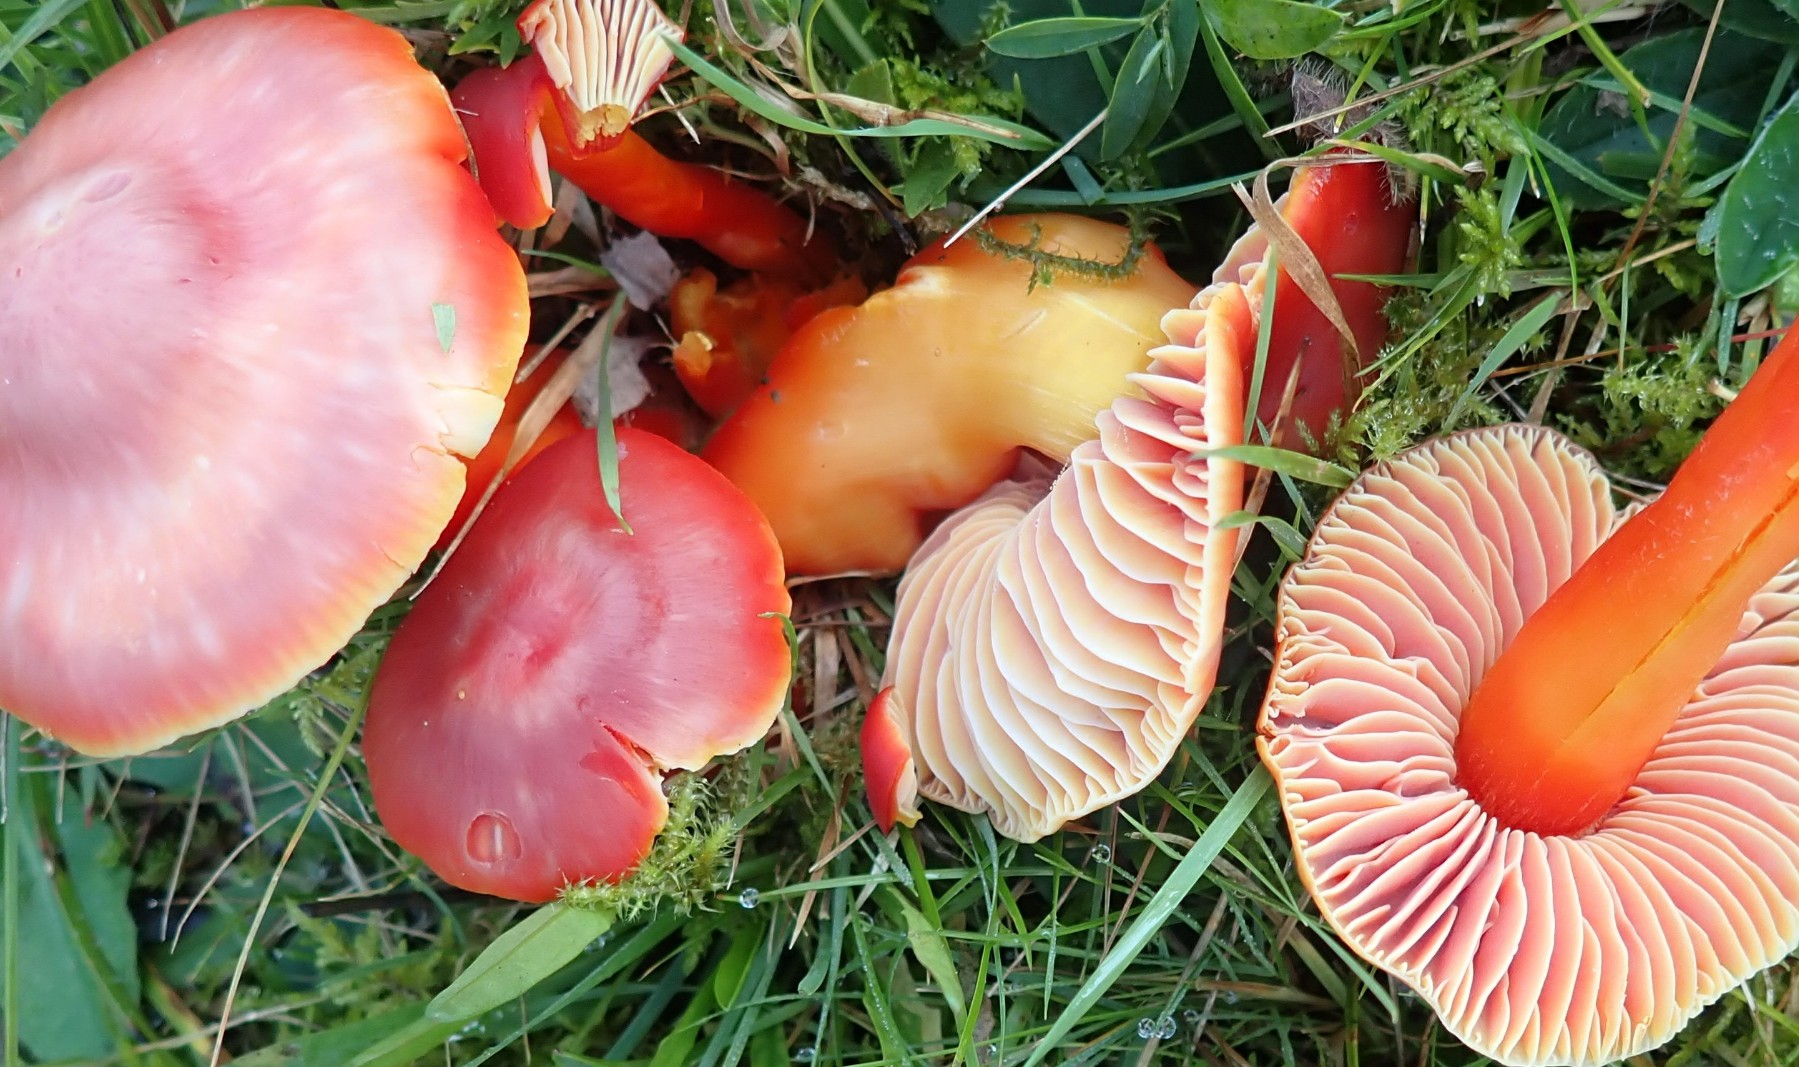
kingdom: Fungi
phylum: Basidiomycota
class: Agaricomycetes
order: Agaricales
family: Hygrophoraceae
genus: Hygrocybe
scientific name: Hygrocybe splendidissima
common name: knaldrød vokshat
